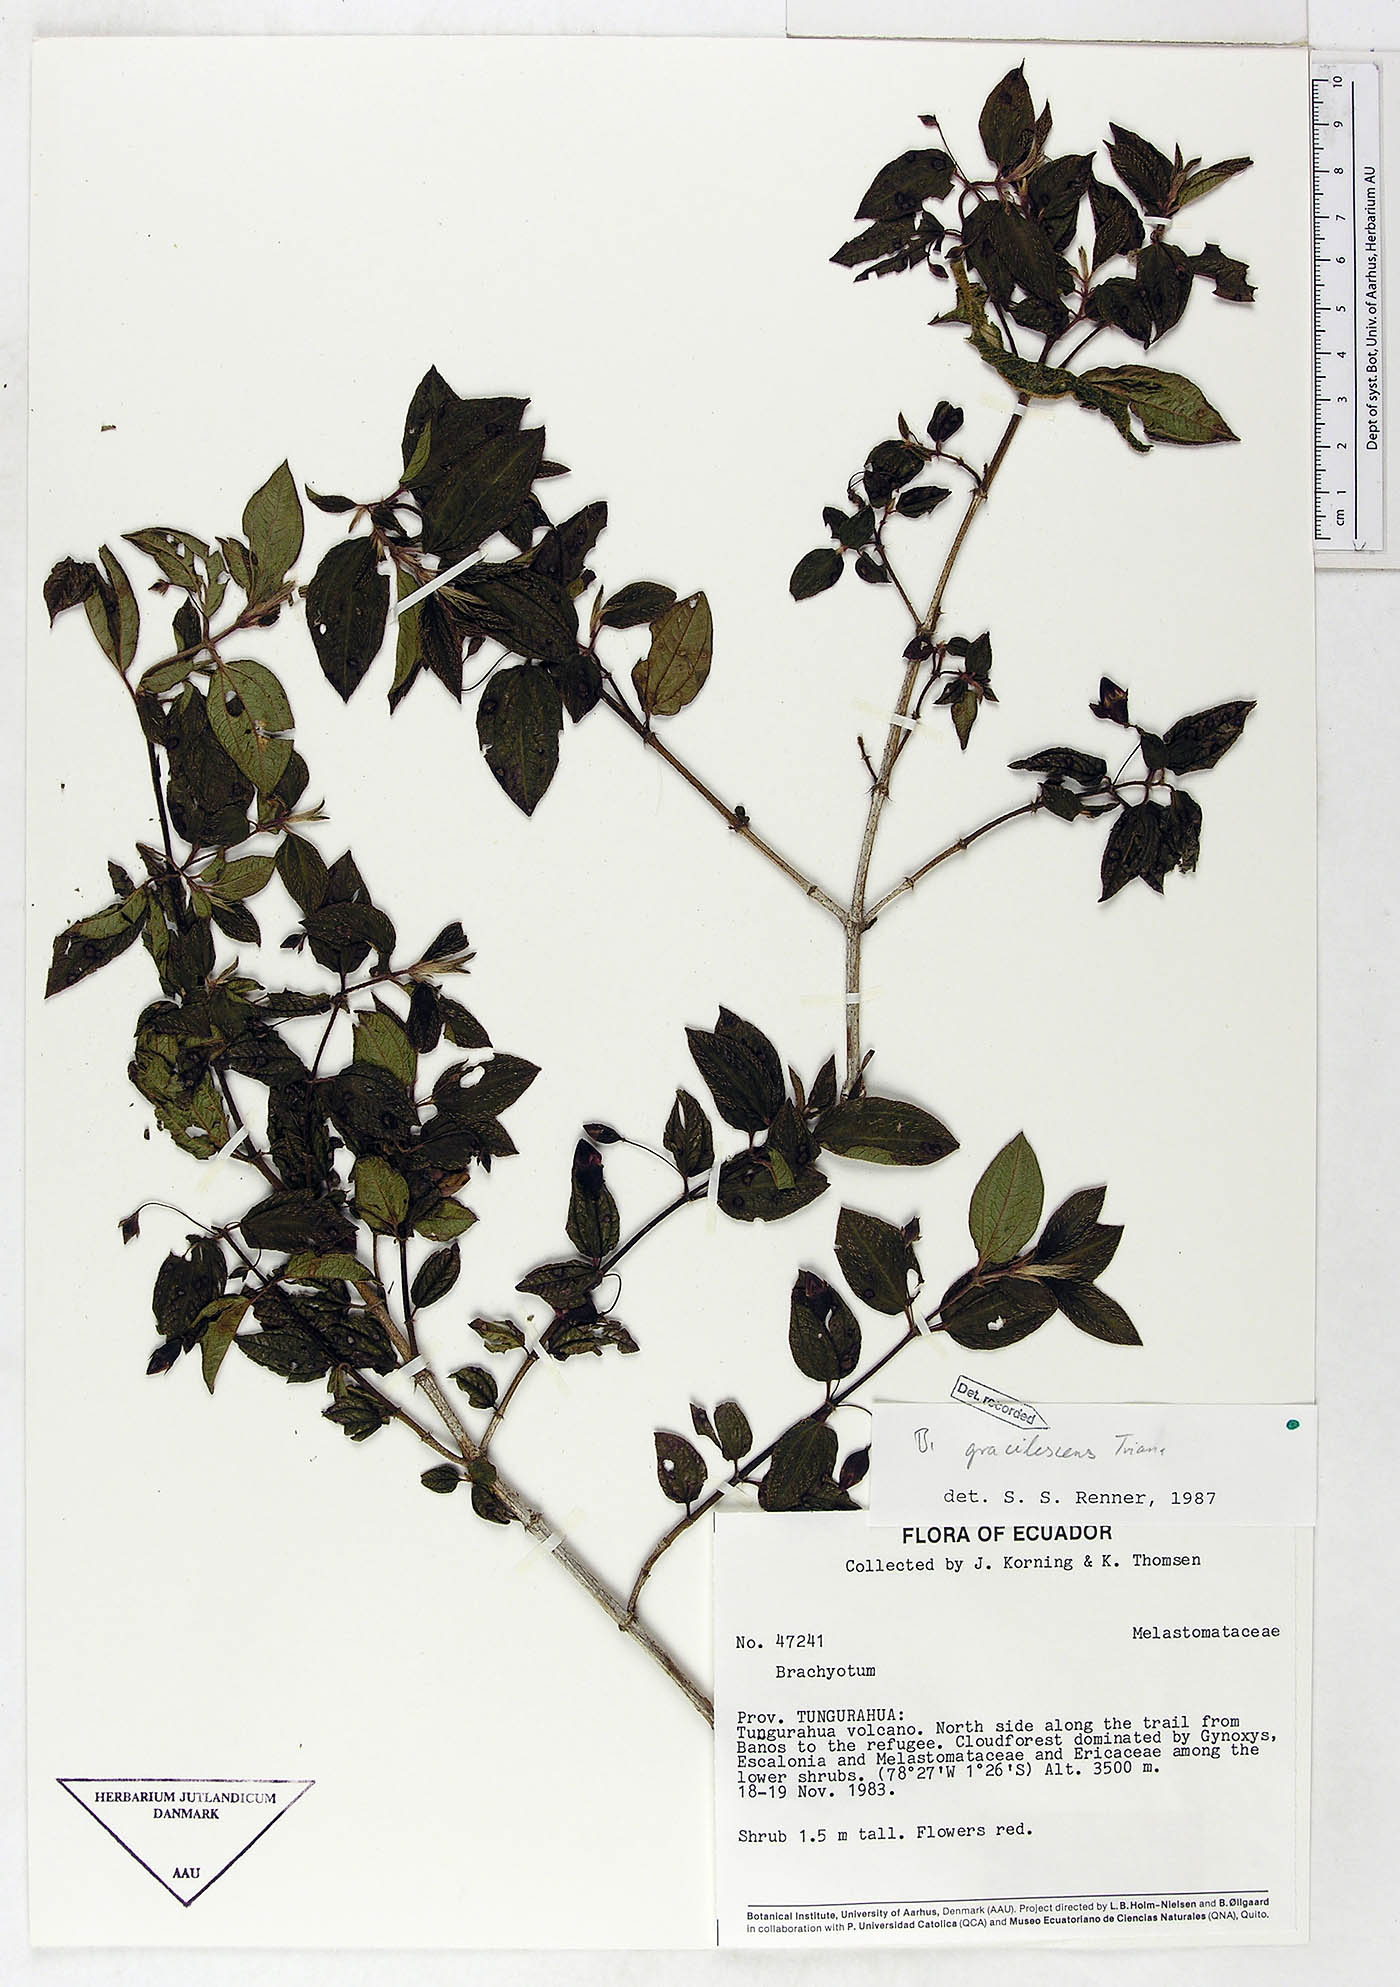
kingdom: Plantae
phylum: Tracheophyta
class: Magnoliopsida
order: Myrtales
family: Melastomataceae
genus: Brachyotum
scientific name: Brachyotum gracilescens
